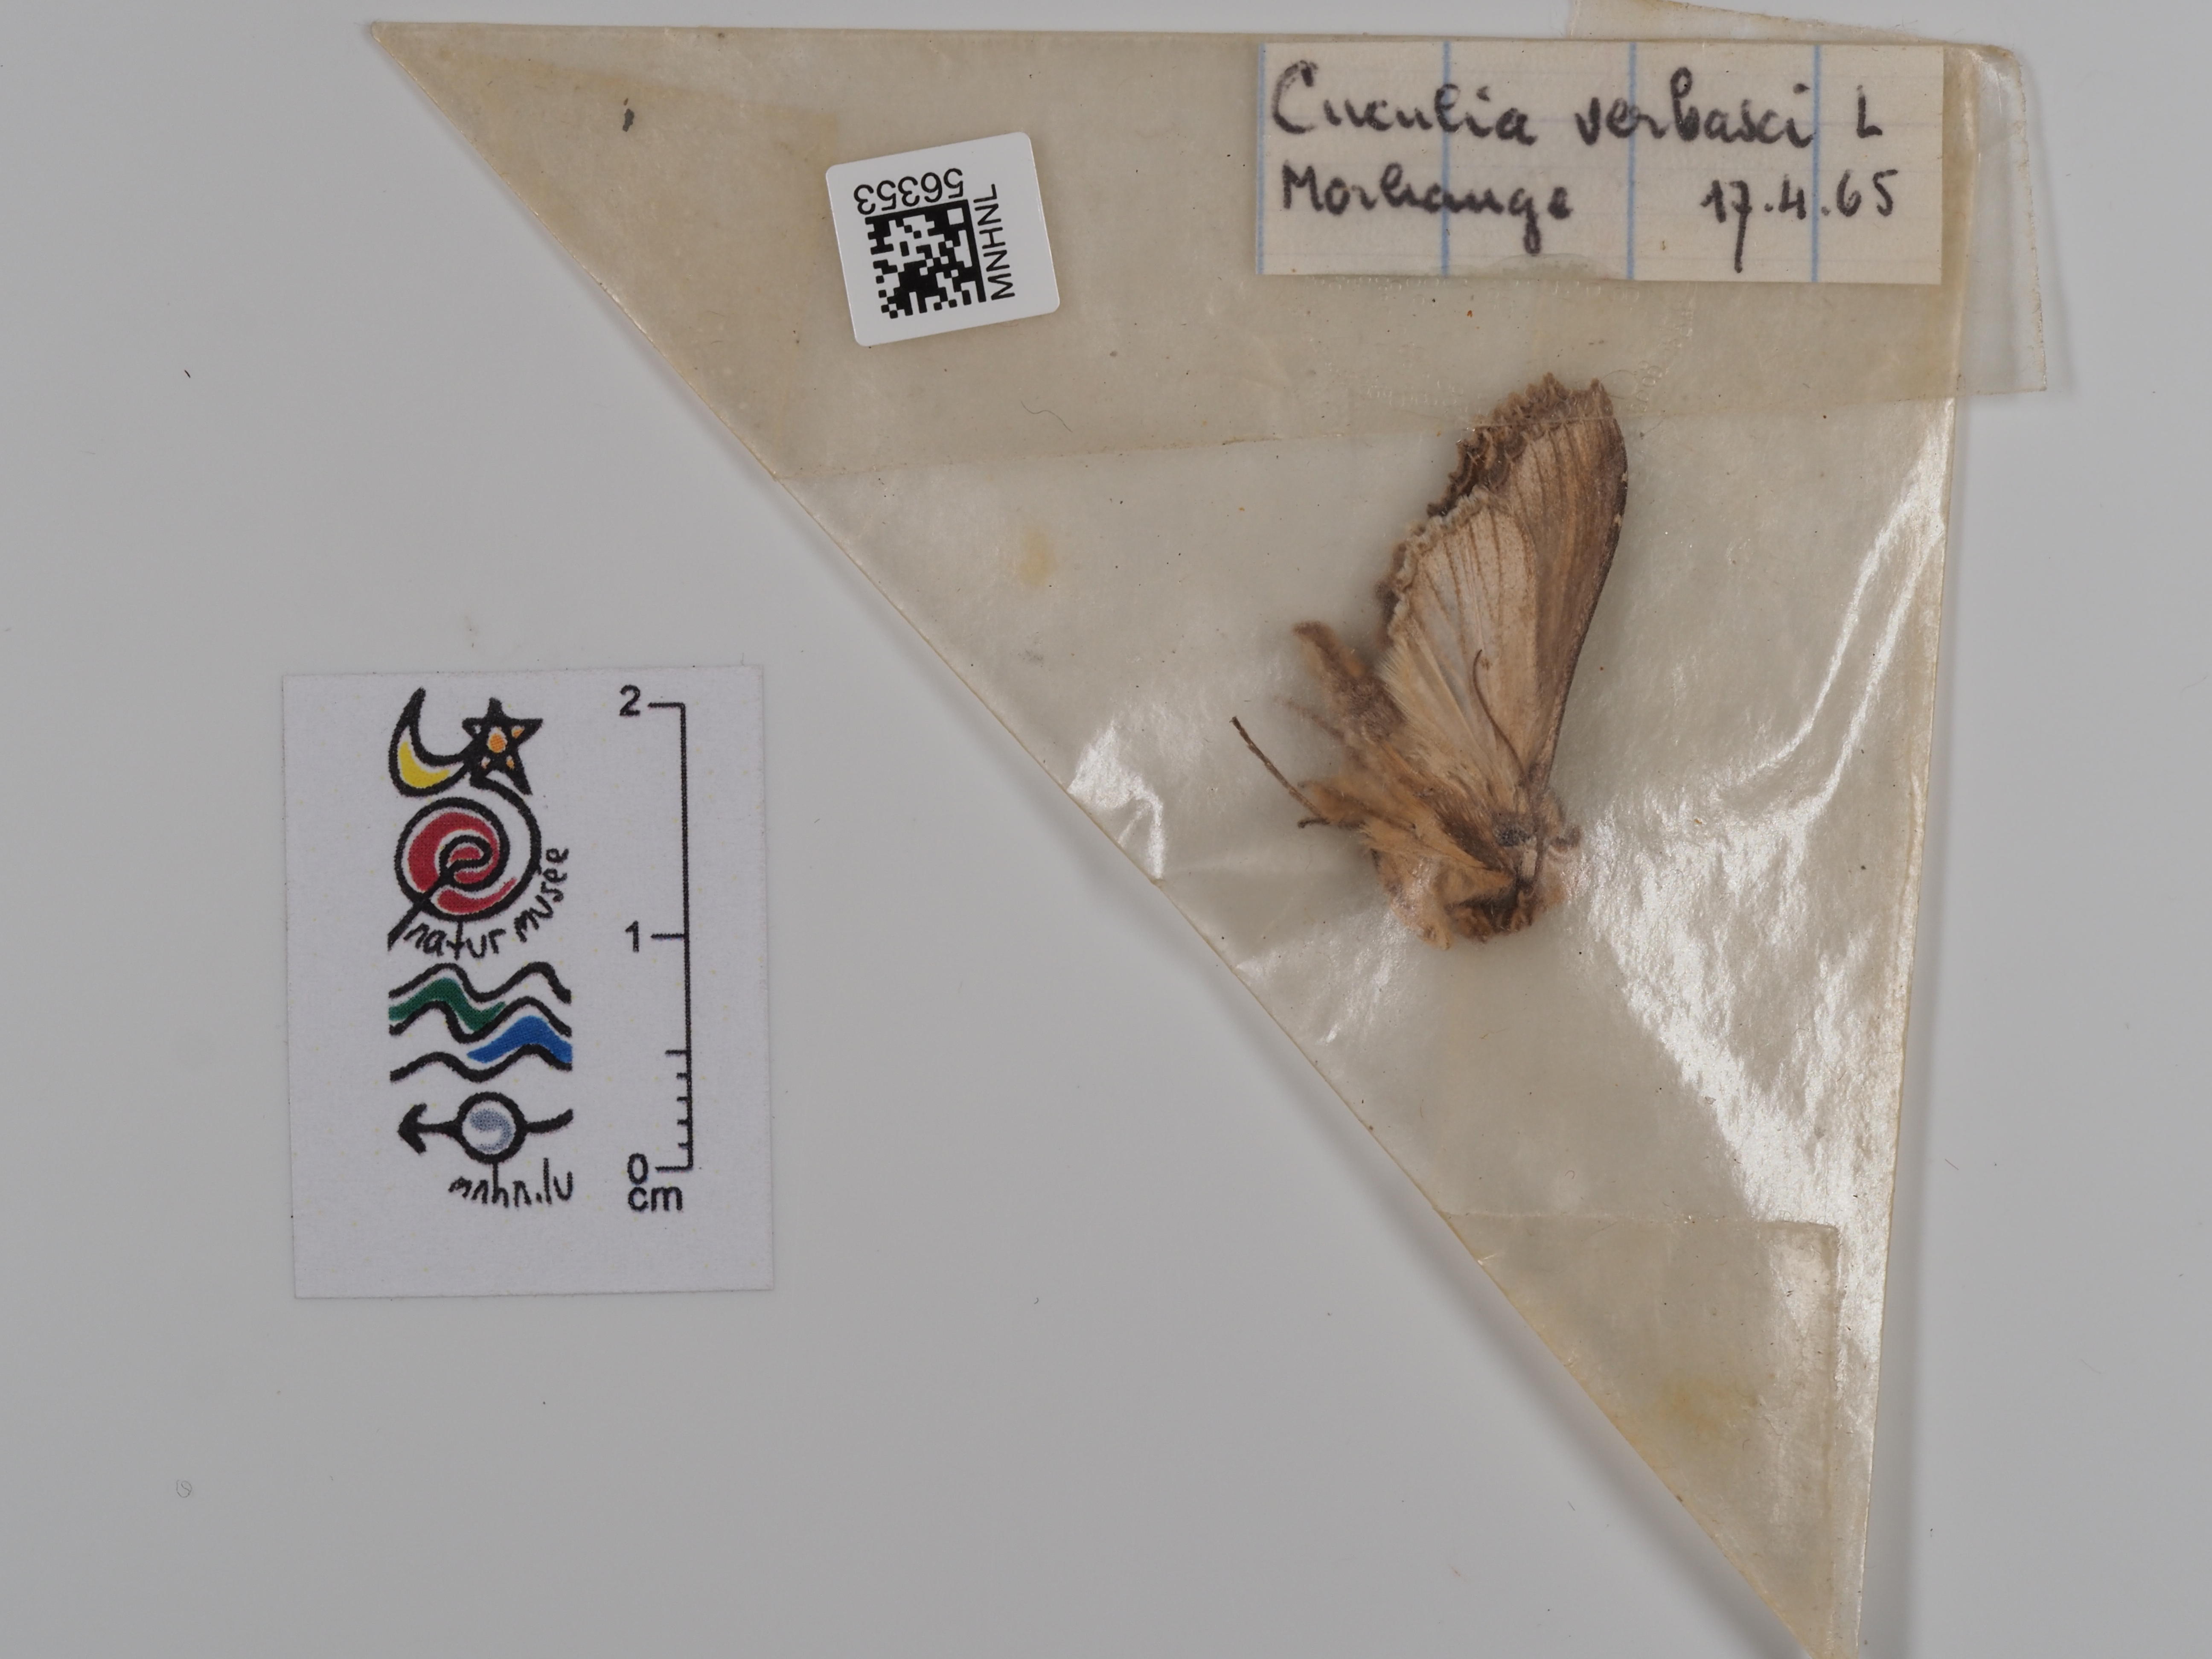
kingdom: Animalia
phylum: Arthropoda
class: Insecta
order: Lepidoptera
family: Noctuidae
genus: Cucullia
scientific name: Cucullia verbasci
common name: Mullein
